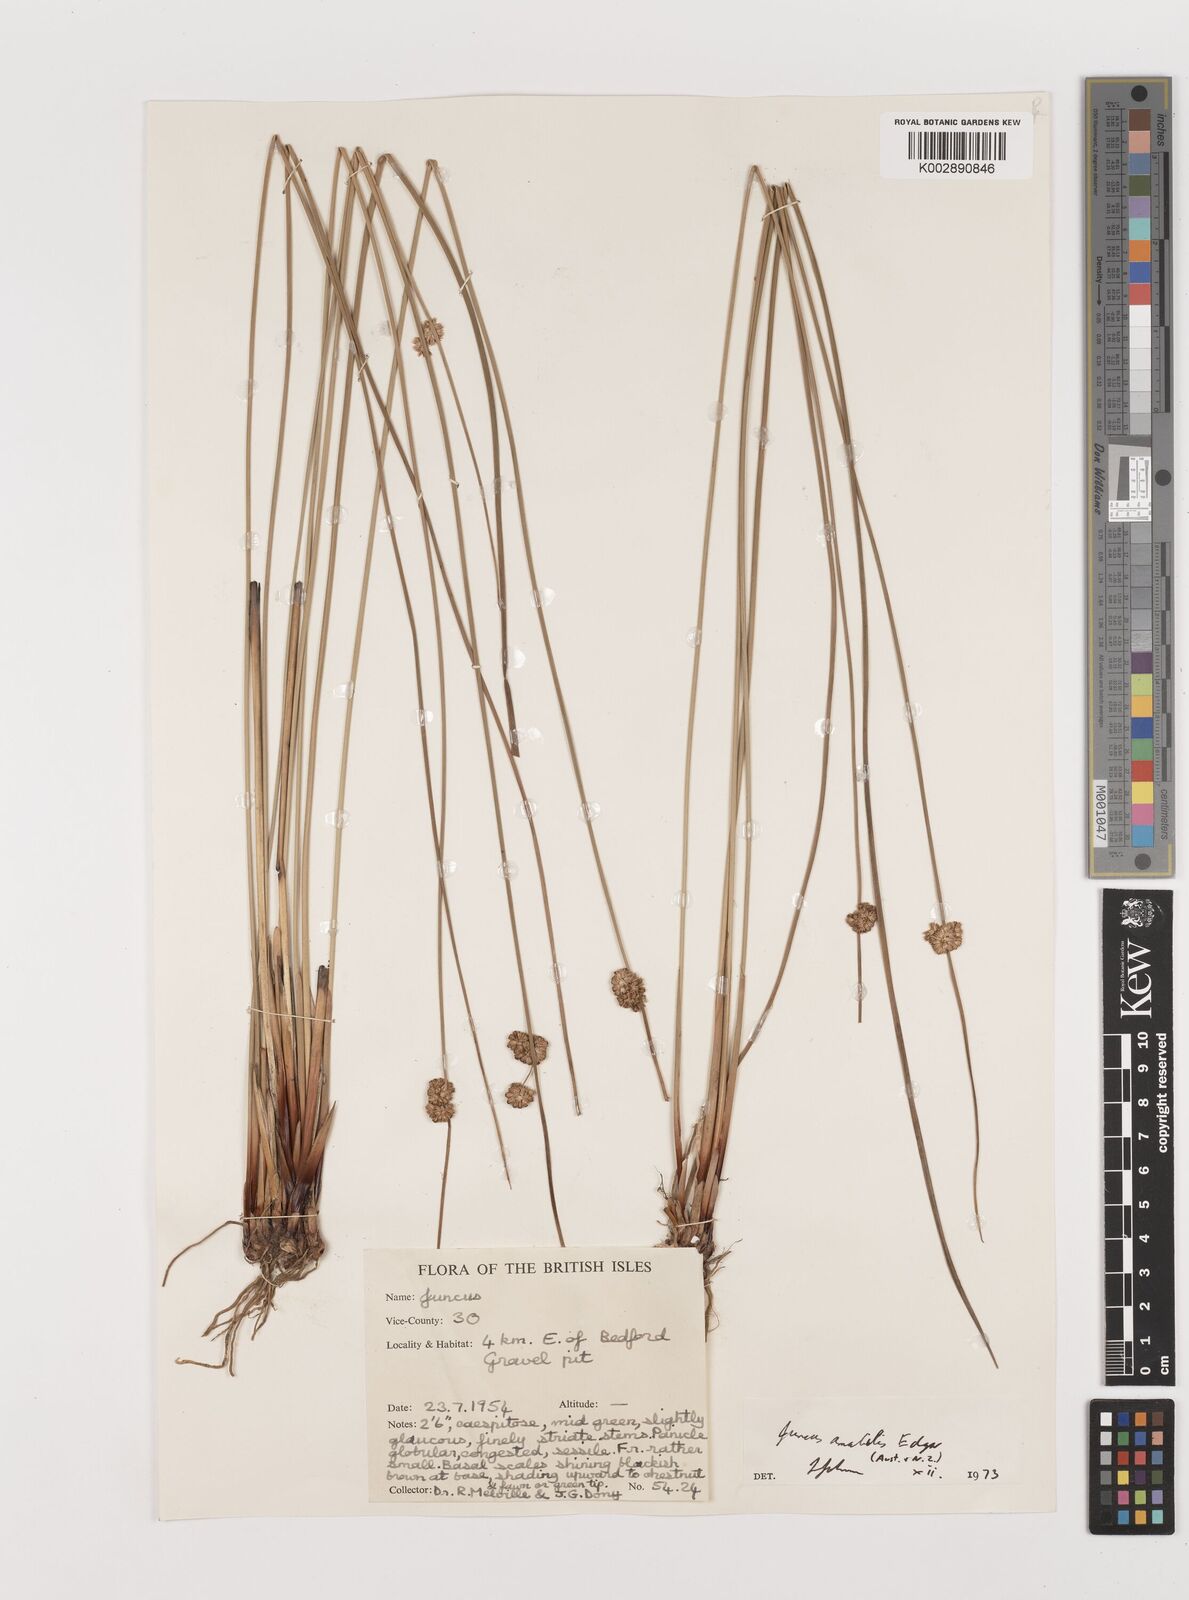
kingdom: Plantae
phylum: Tracheophyta
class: Liliopsida
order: Poales
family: Juncaceae
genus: Juncus
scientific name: Juncus amabilis
